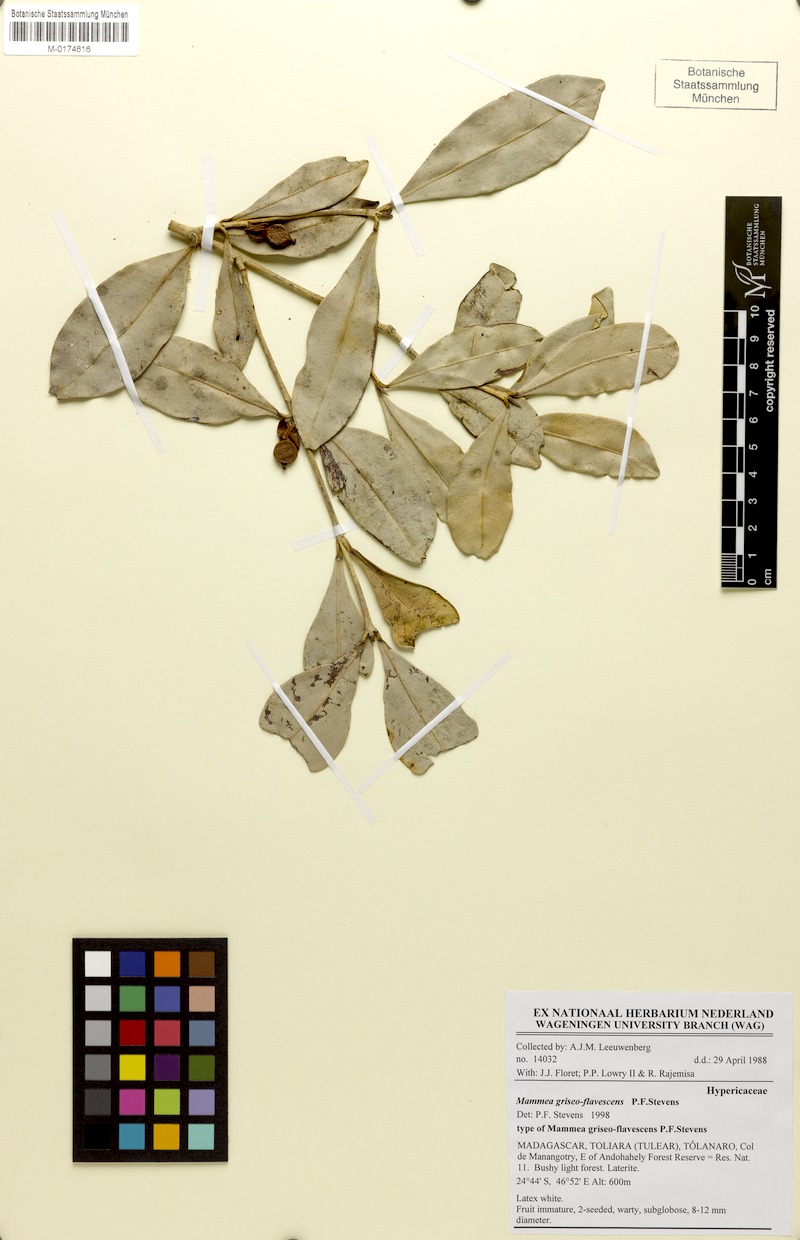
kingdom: Plantae
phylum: Tracheophyta
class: Magnoliopsida
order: Malpighiales
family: Calophyllaceae
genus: Mammea
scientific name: Mammea griseo-flavescens
